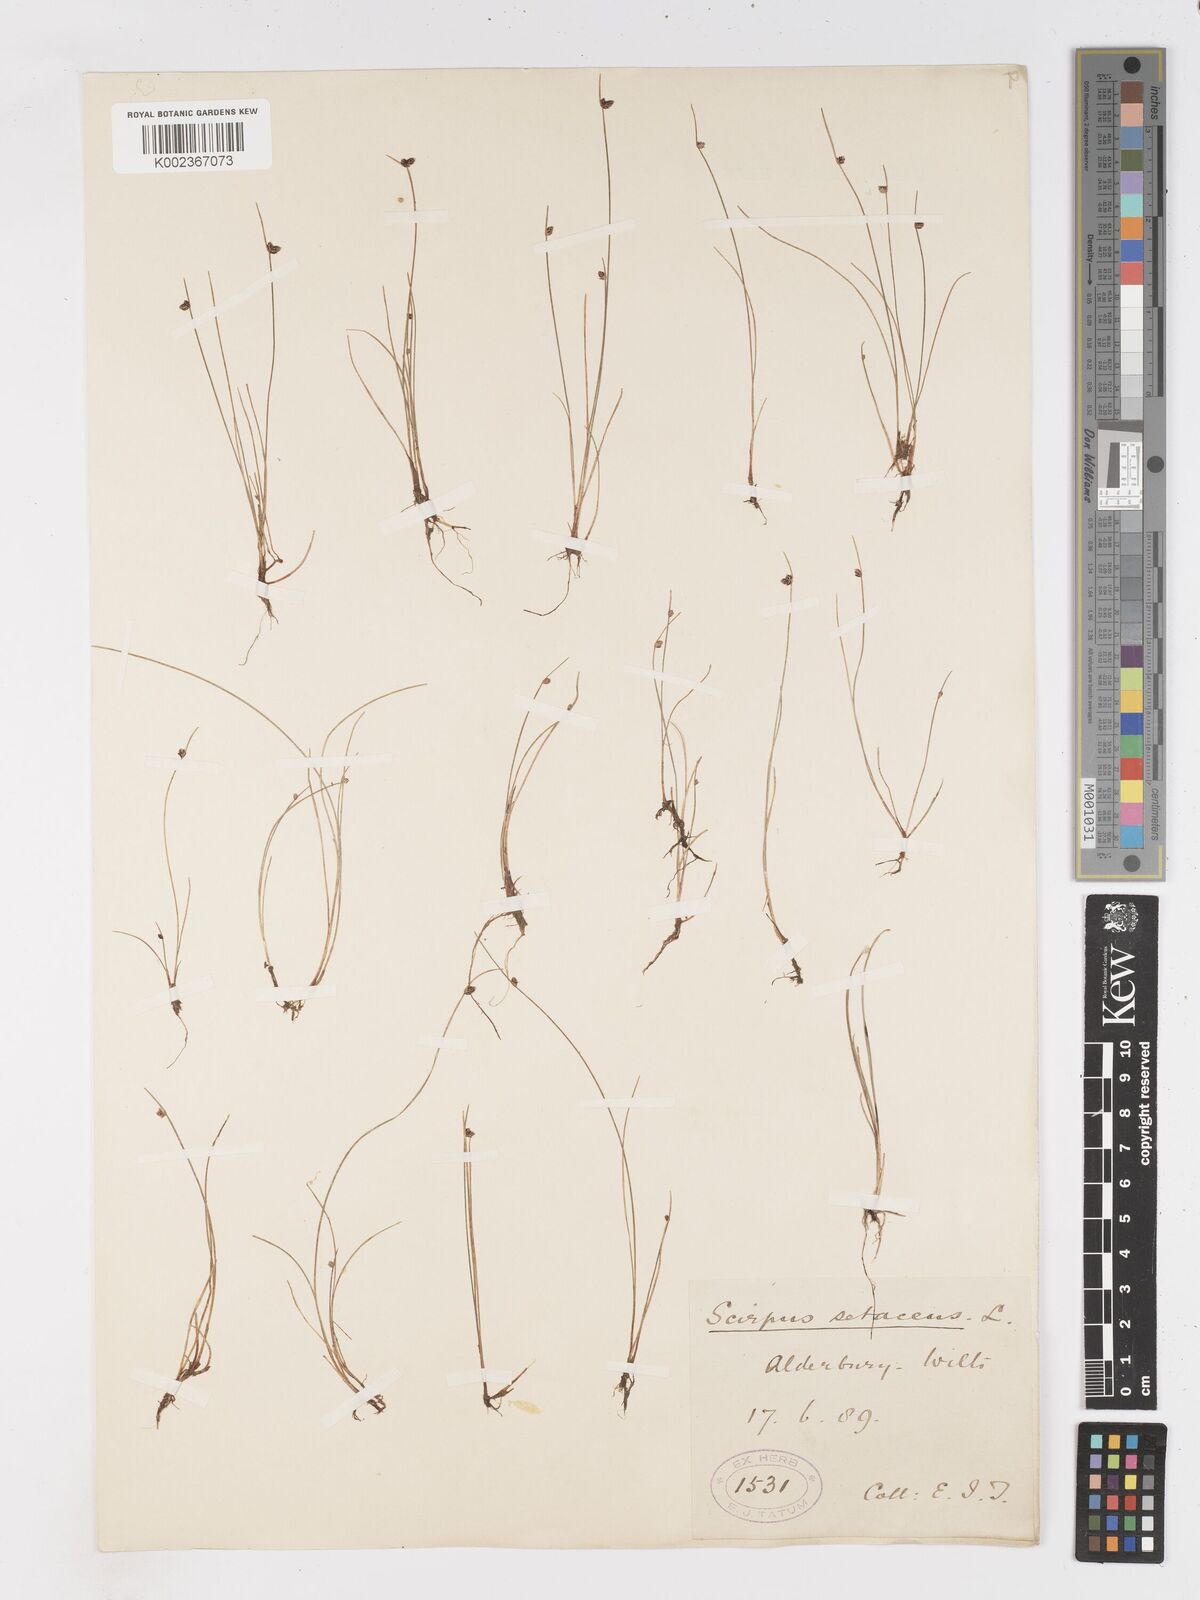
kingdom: Plantae
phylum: Tracheophyta
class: Liliopsida
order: Poales
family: Cyperaceae
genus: Isolepis
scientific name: Isolepis setacea
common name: Bristle club-rush
